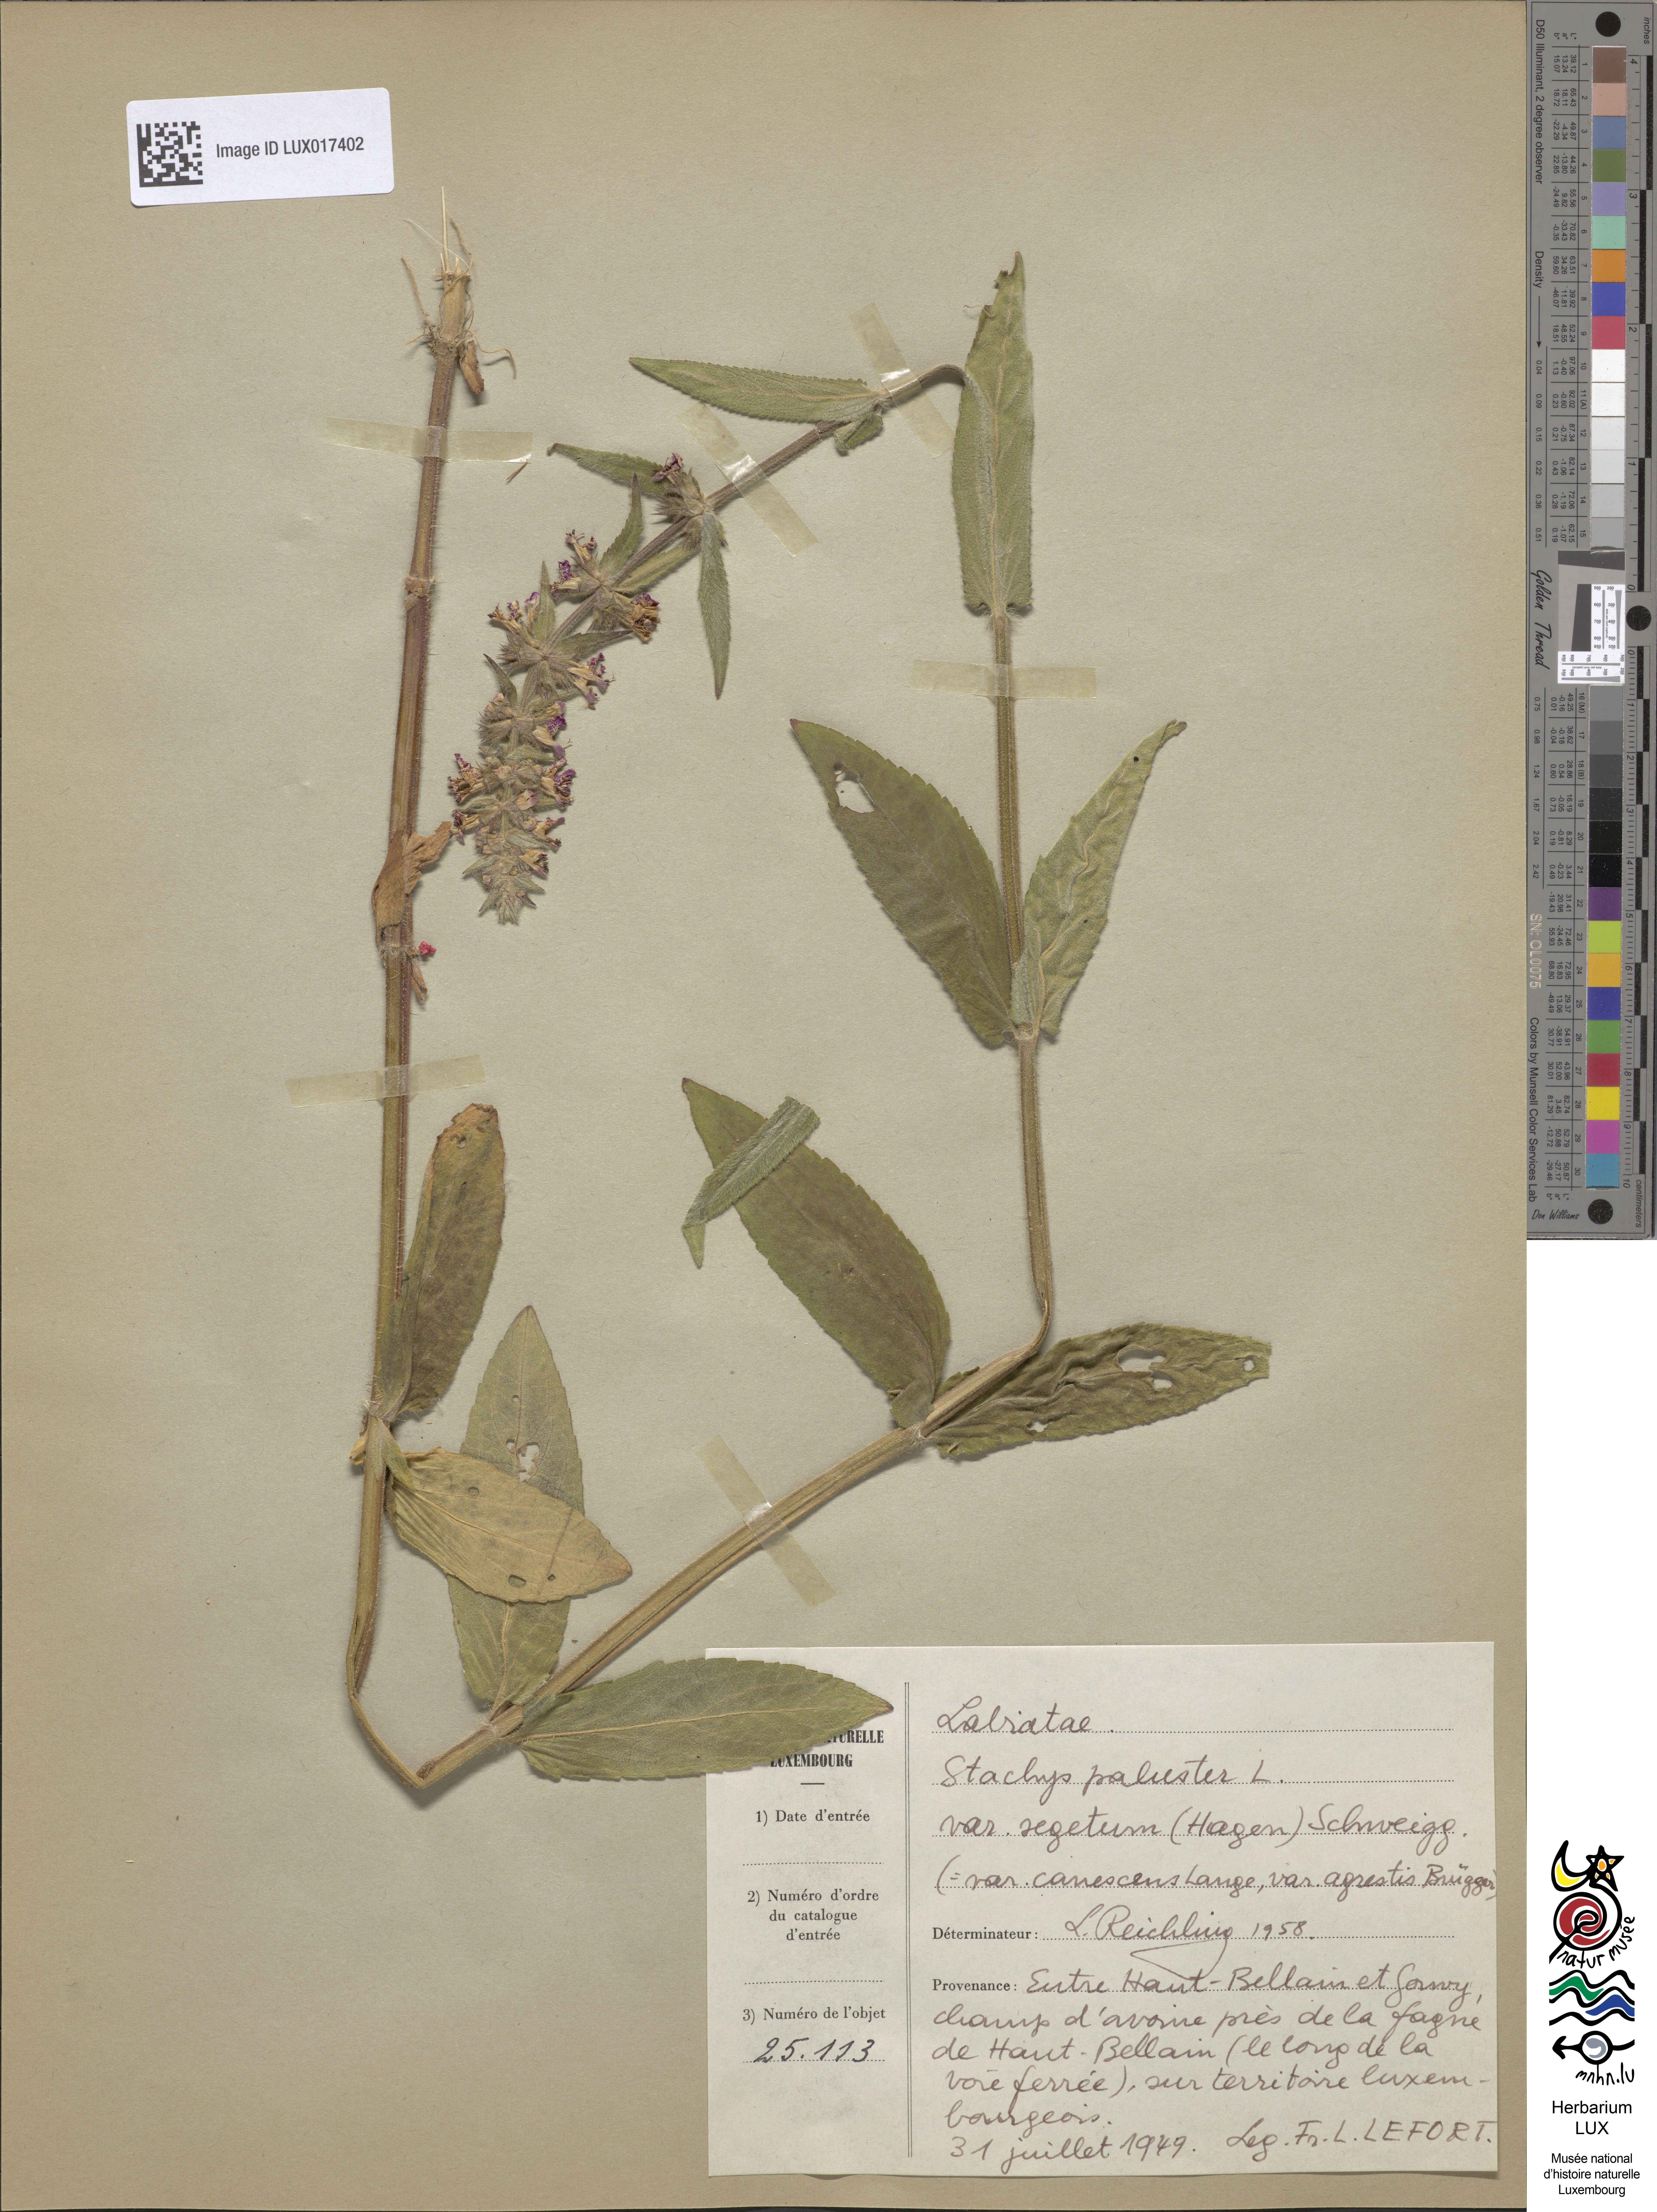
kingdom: Plantae
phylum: Tracheophyta
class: Magnoliopsida
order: Lamiales
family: Lamiaceae
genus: Stachys
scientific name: Stachys pilosa
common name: Hairy hedge-nettle
